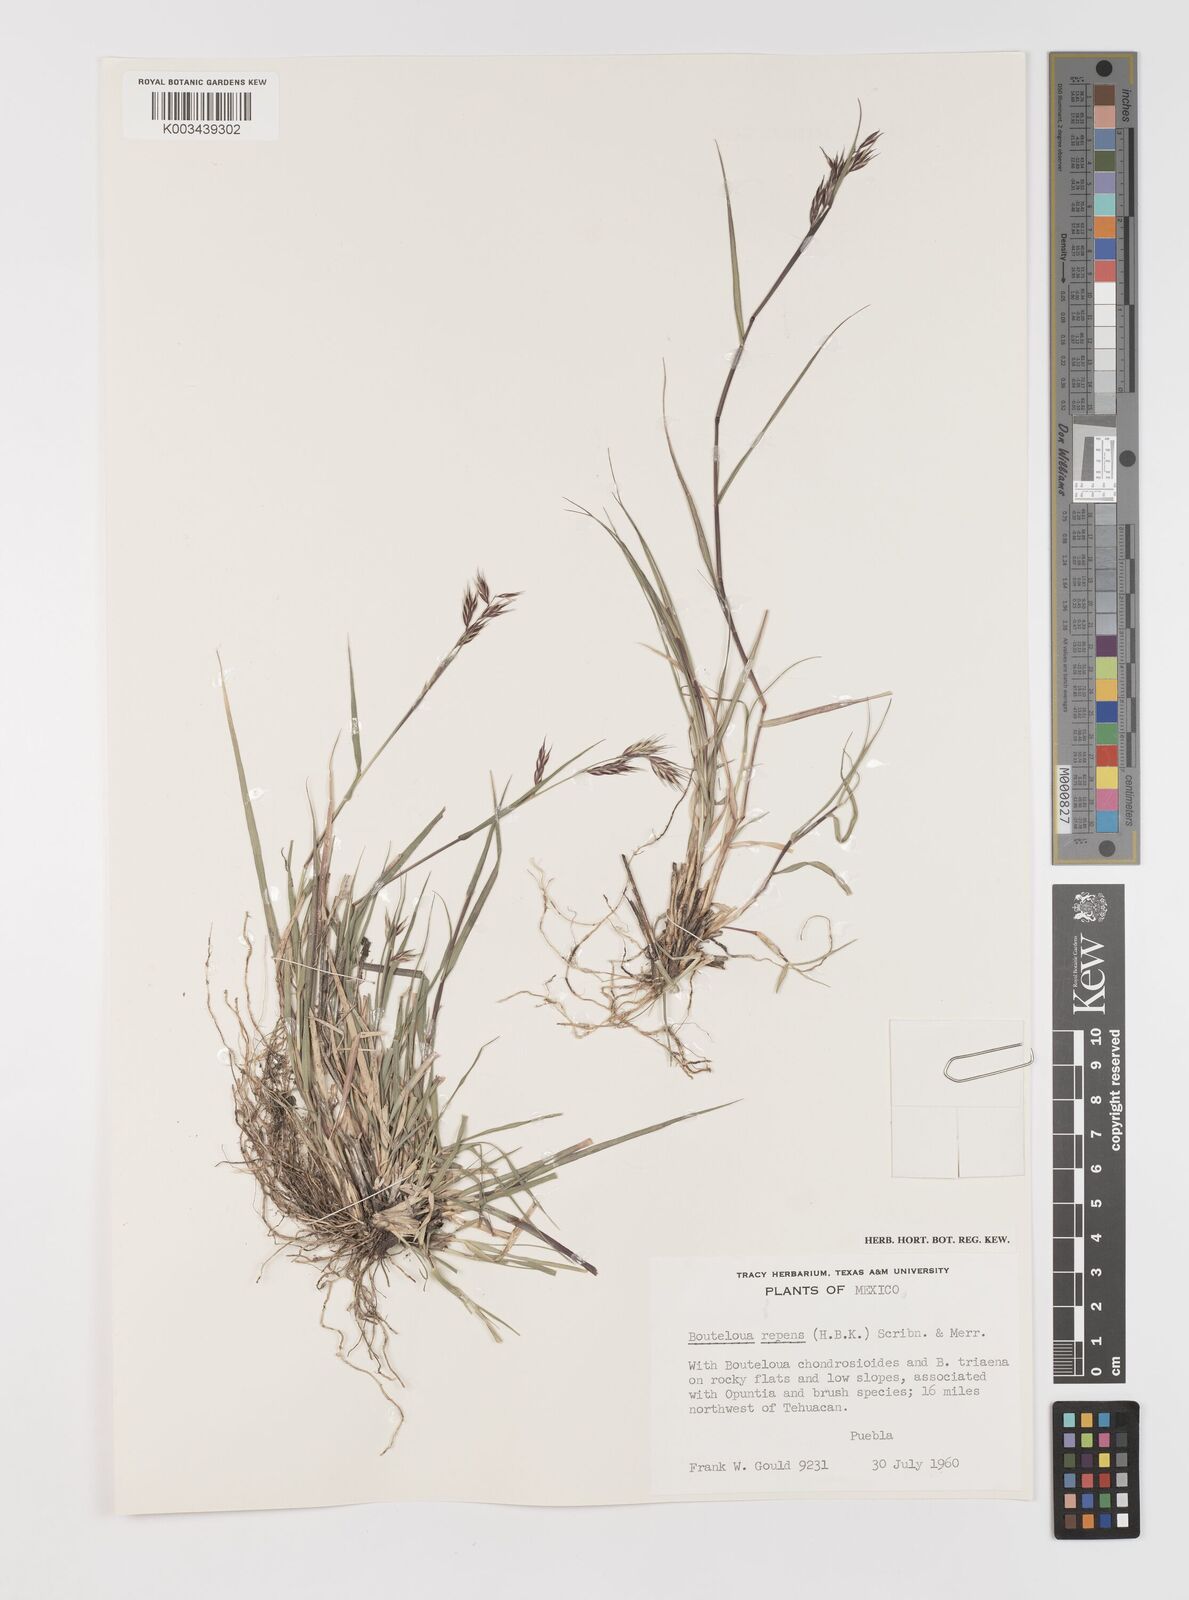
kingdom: Plantae
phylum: Tracheophyta
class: Liliopsida
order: Poales
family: Poaceae
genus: Bouteloua
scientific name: Bouteloua repens
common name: Slender grama
